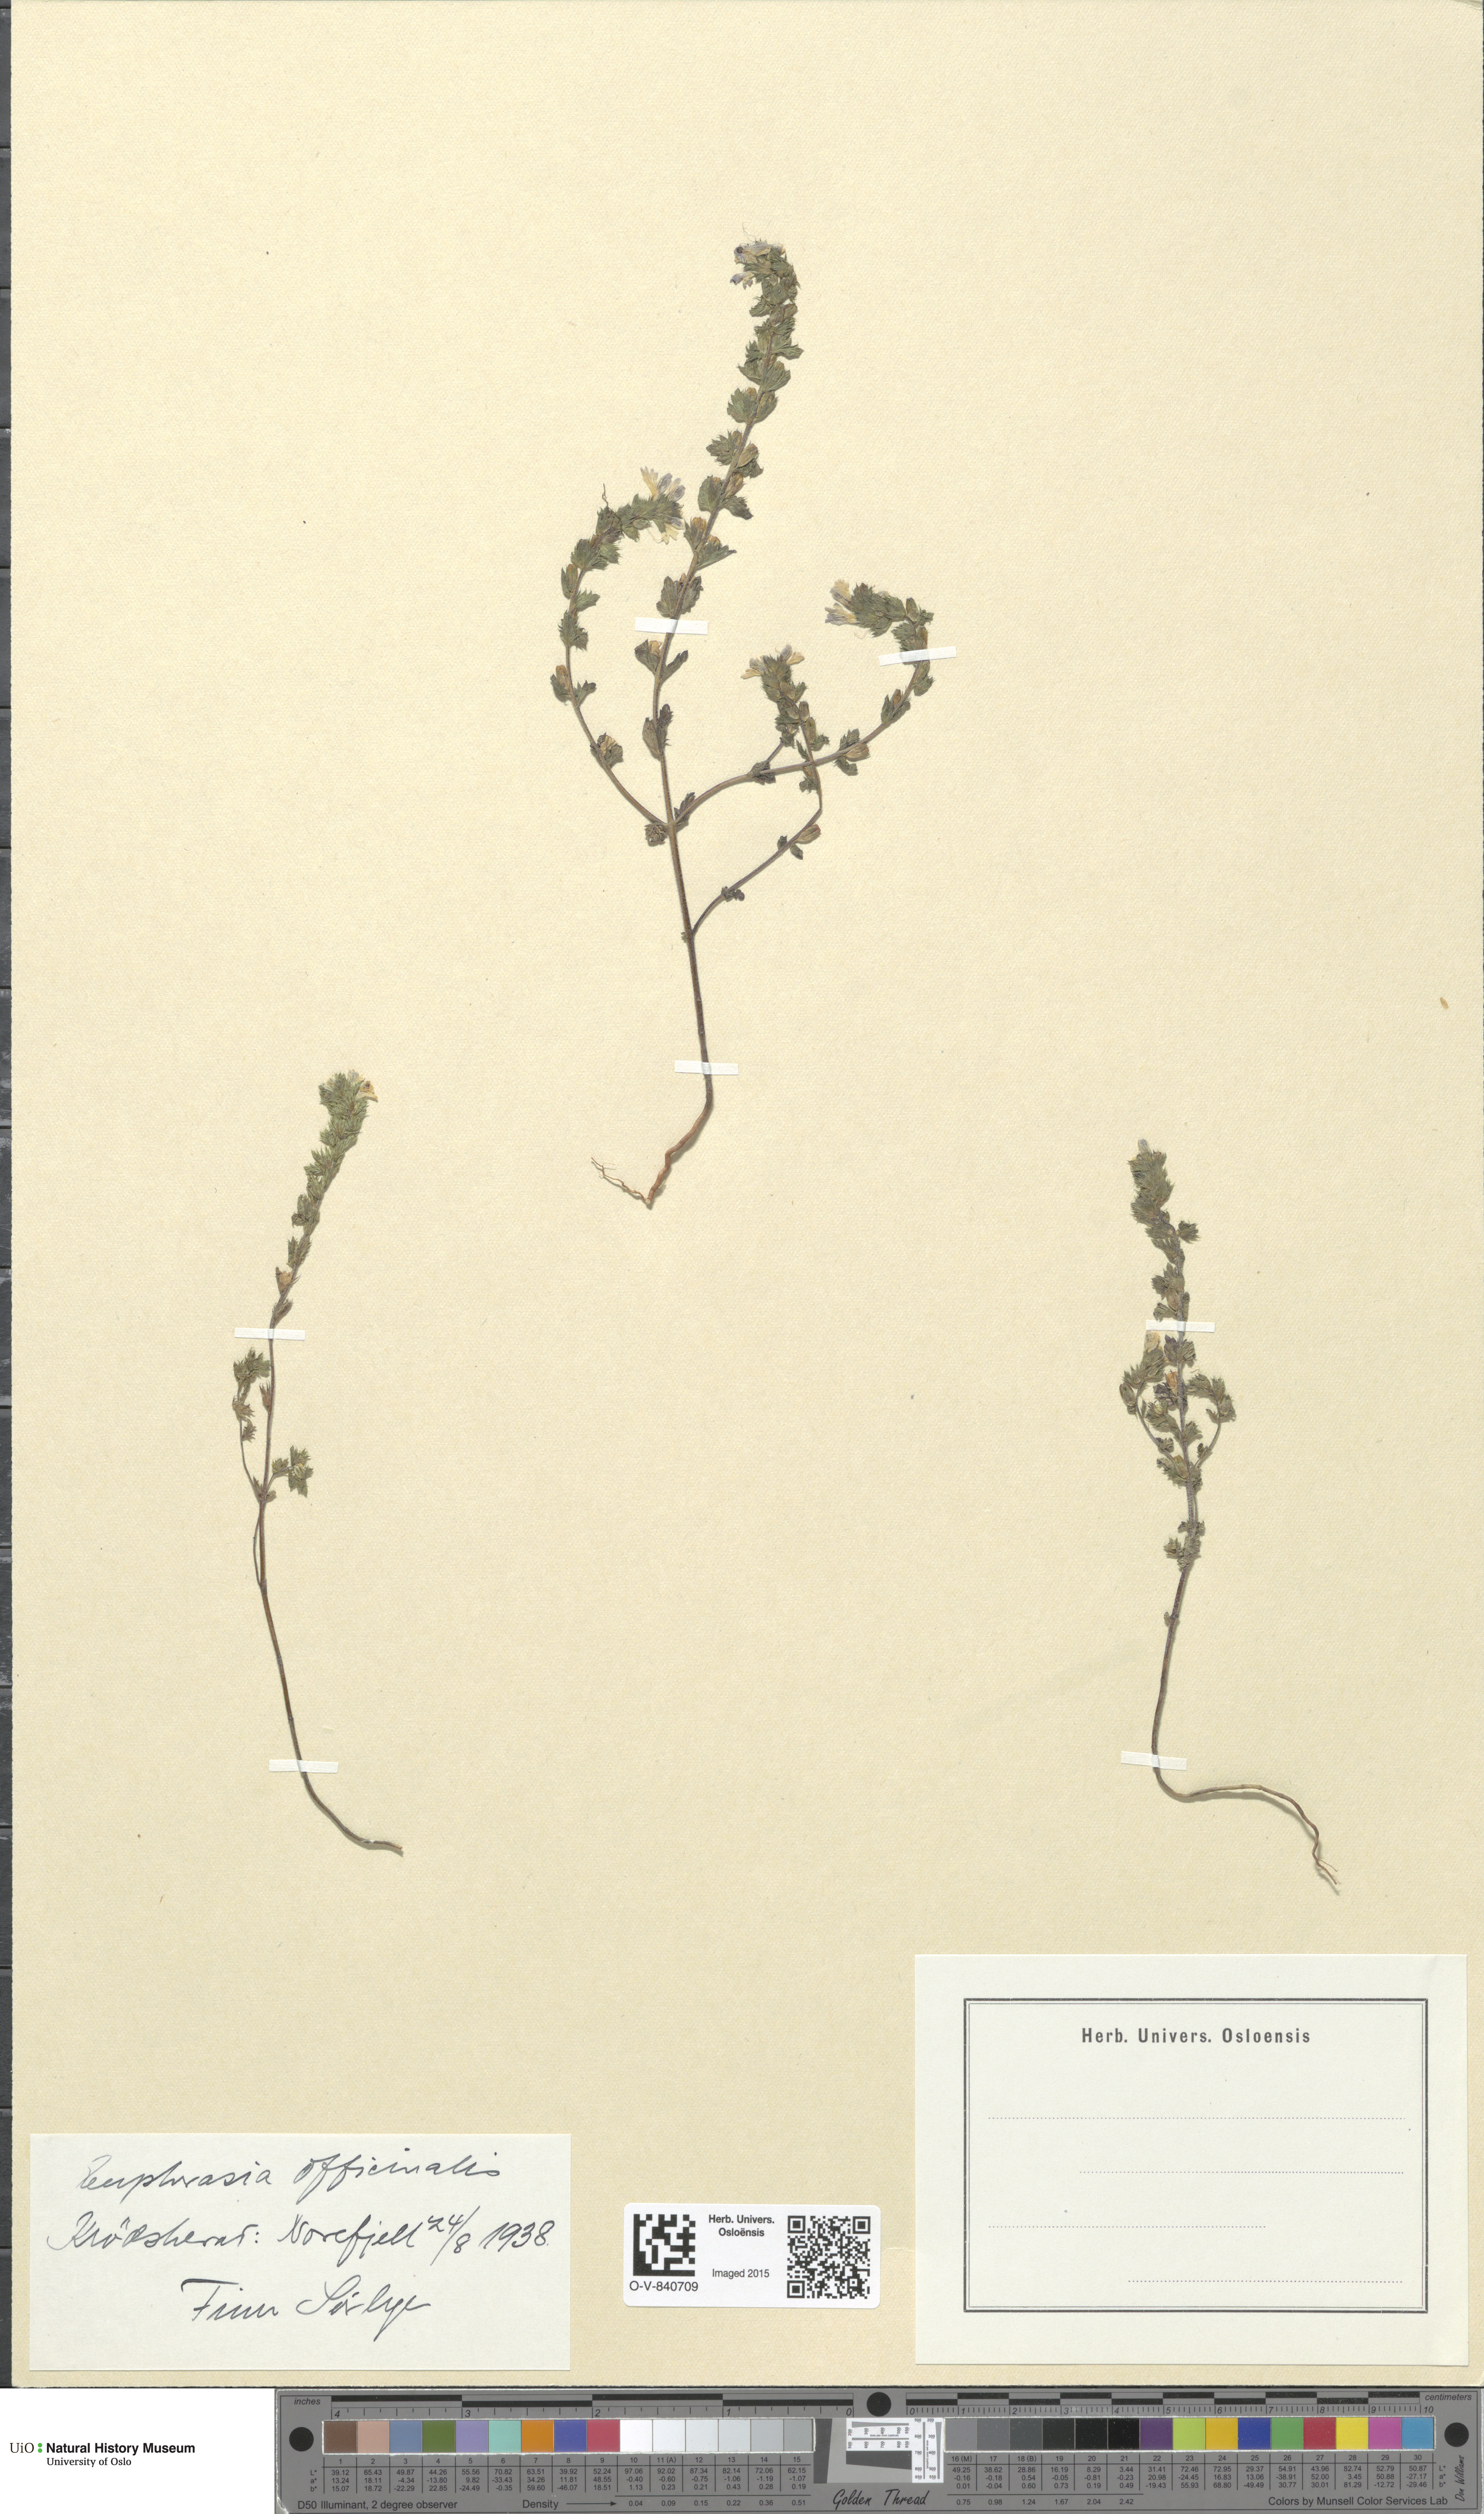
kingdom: Plantae
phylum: Tracheophyta
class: Magnoliopsida
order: Lamiales
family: Orobanchaceae
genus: Euphrasia
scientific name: Euphrasia stricta
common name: Drug eyebright
